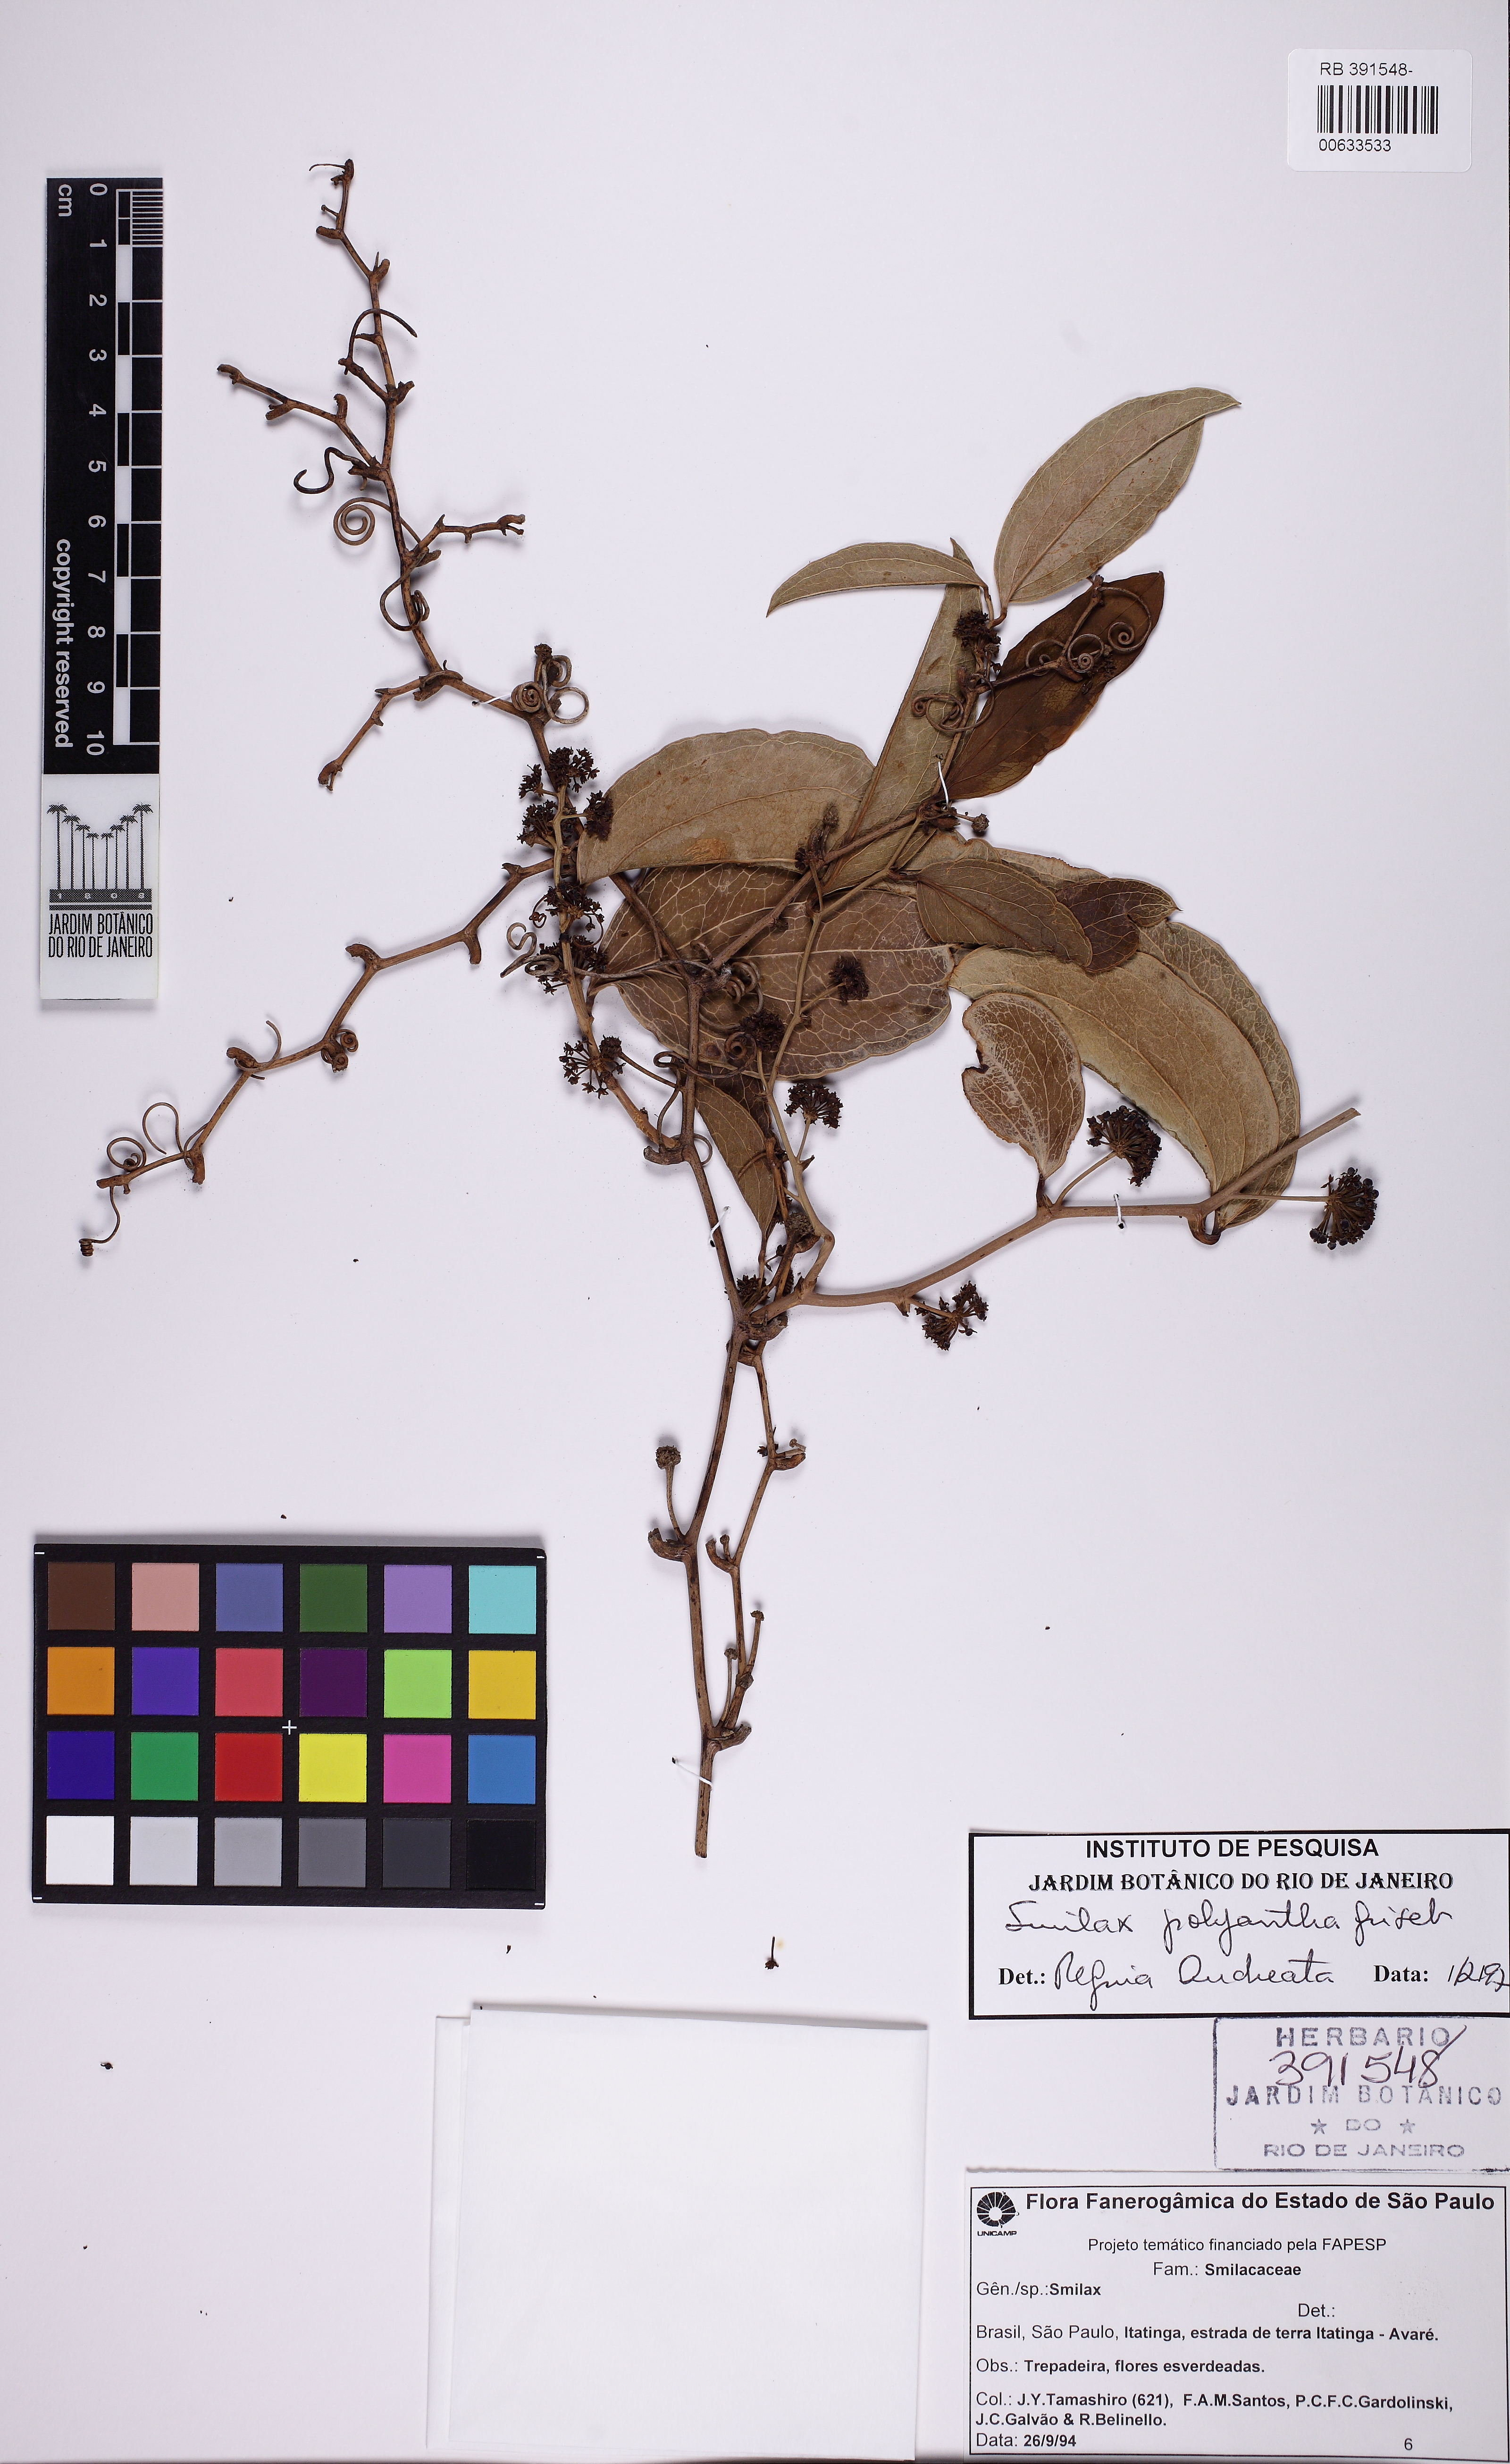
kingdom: Plantae
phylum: Tracheophyta
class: Liliopsida
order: Liliales
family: Smilacaceae
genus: Smilax
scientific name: Smilax polyantha
